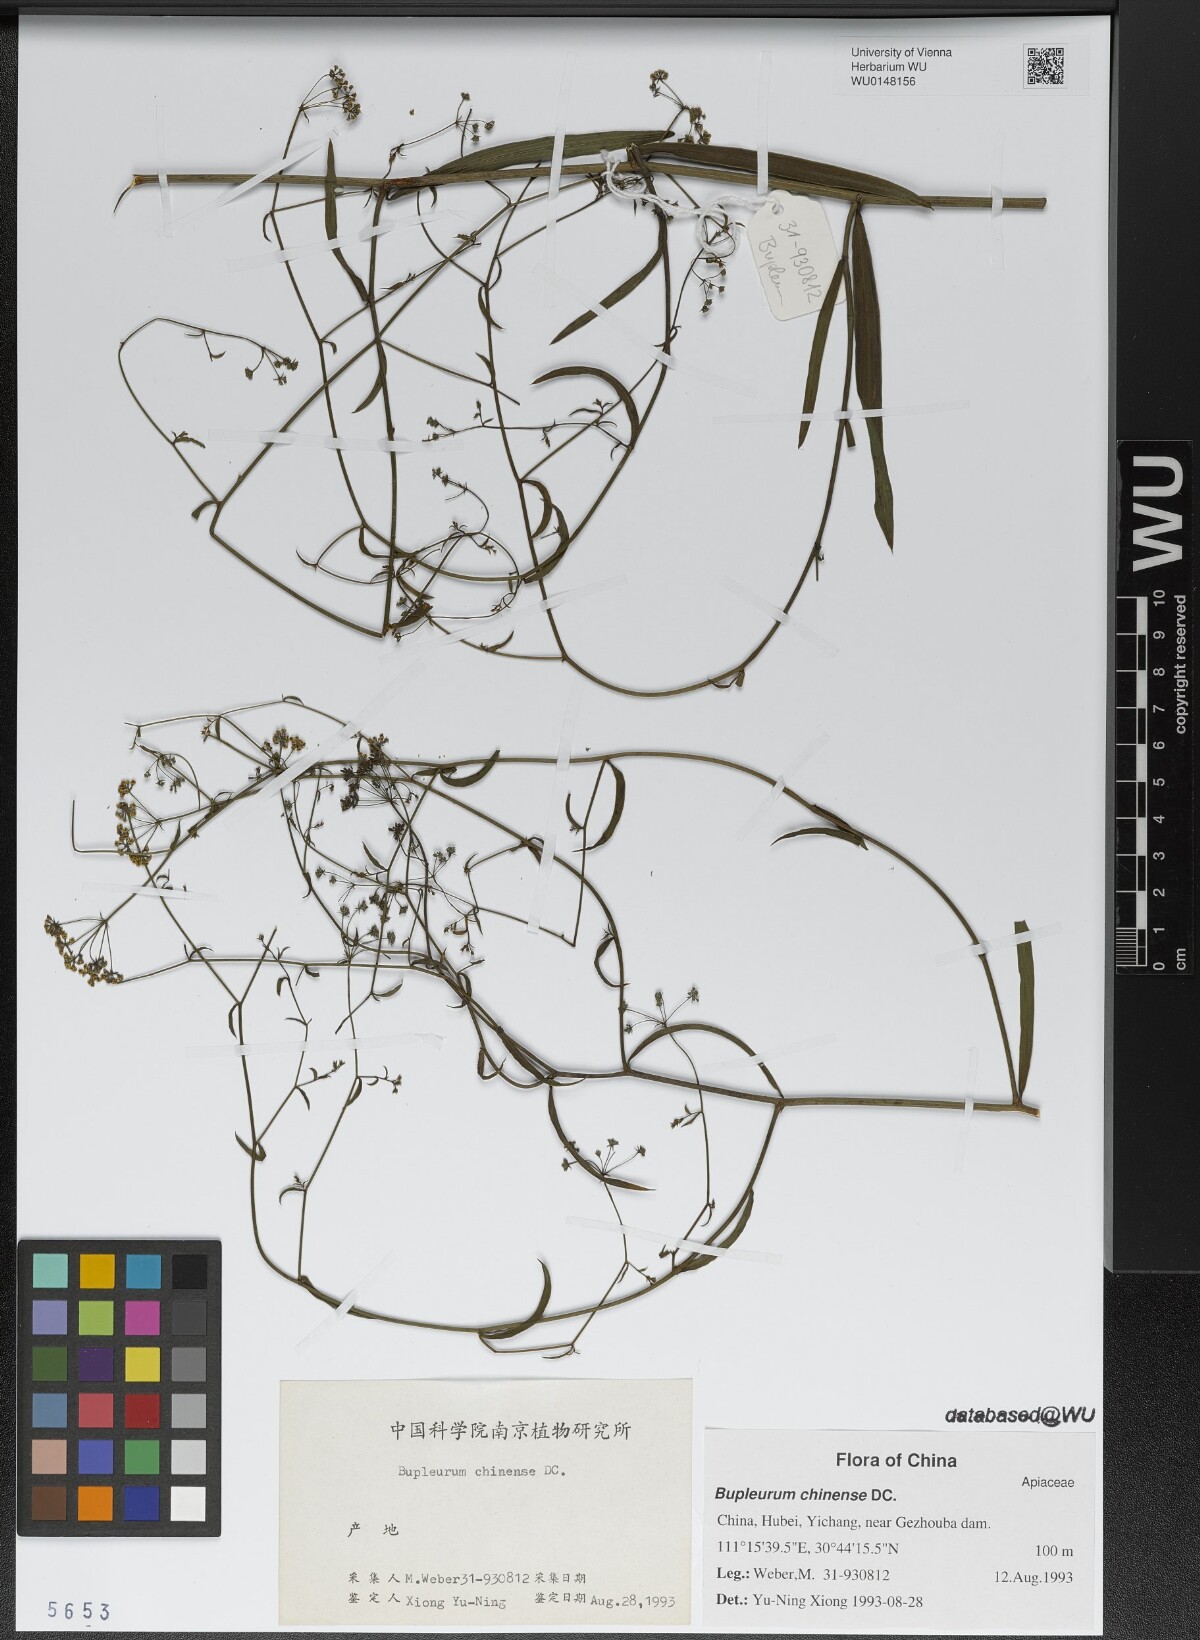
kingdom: Plantae
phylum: Tracheophyta
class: Magnoliopsida
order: Apiales
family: Apiaceae
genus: Bupleurum
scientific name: Bupleurum chinense
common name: Bupleurum
